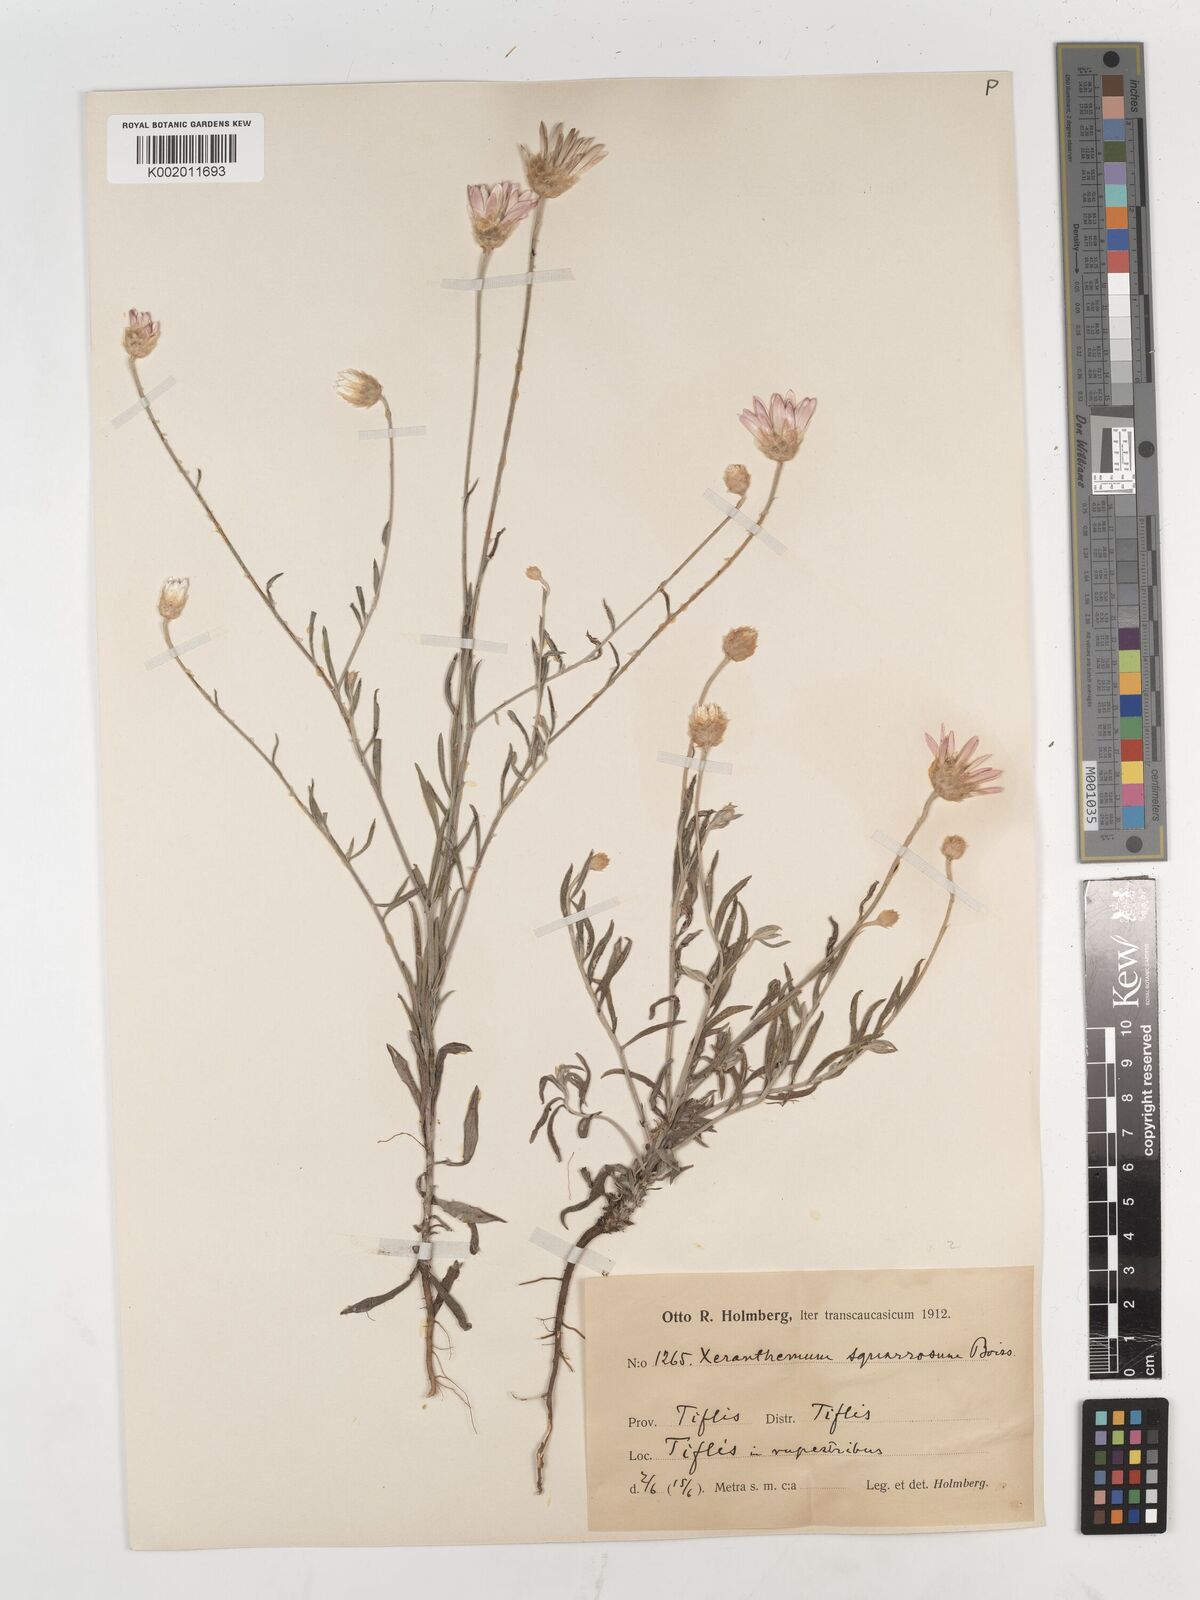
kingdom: Plantae
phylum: Tracheophyta
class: Magnoliopsida
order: Asterales
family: Asteraceae
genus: Xeranthemum
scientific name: Xeranthemum squarrosum
